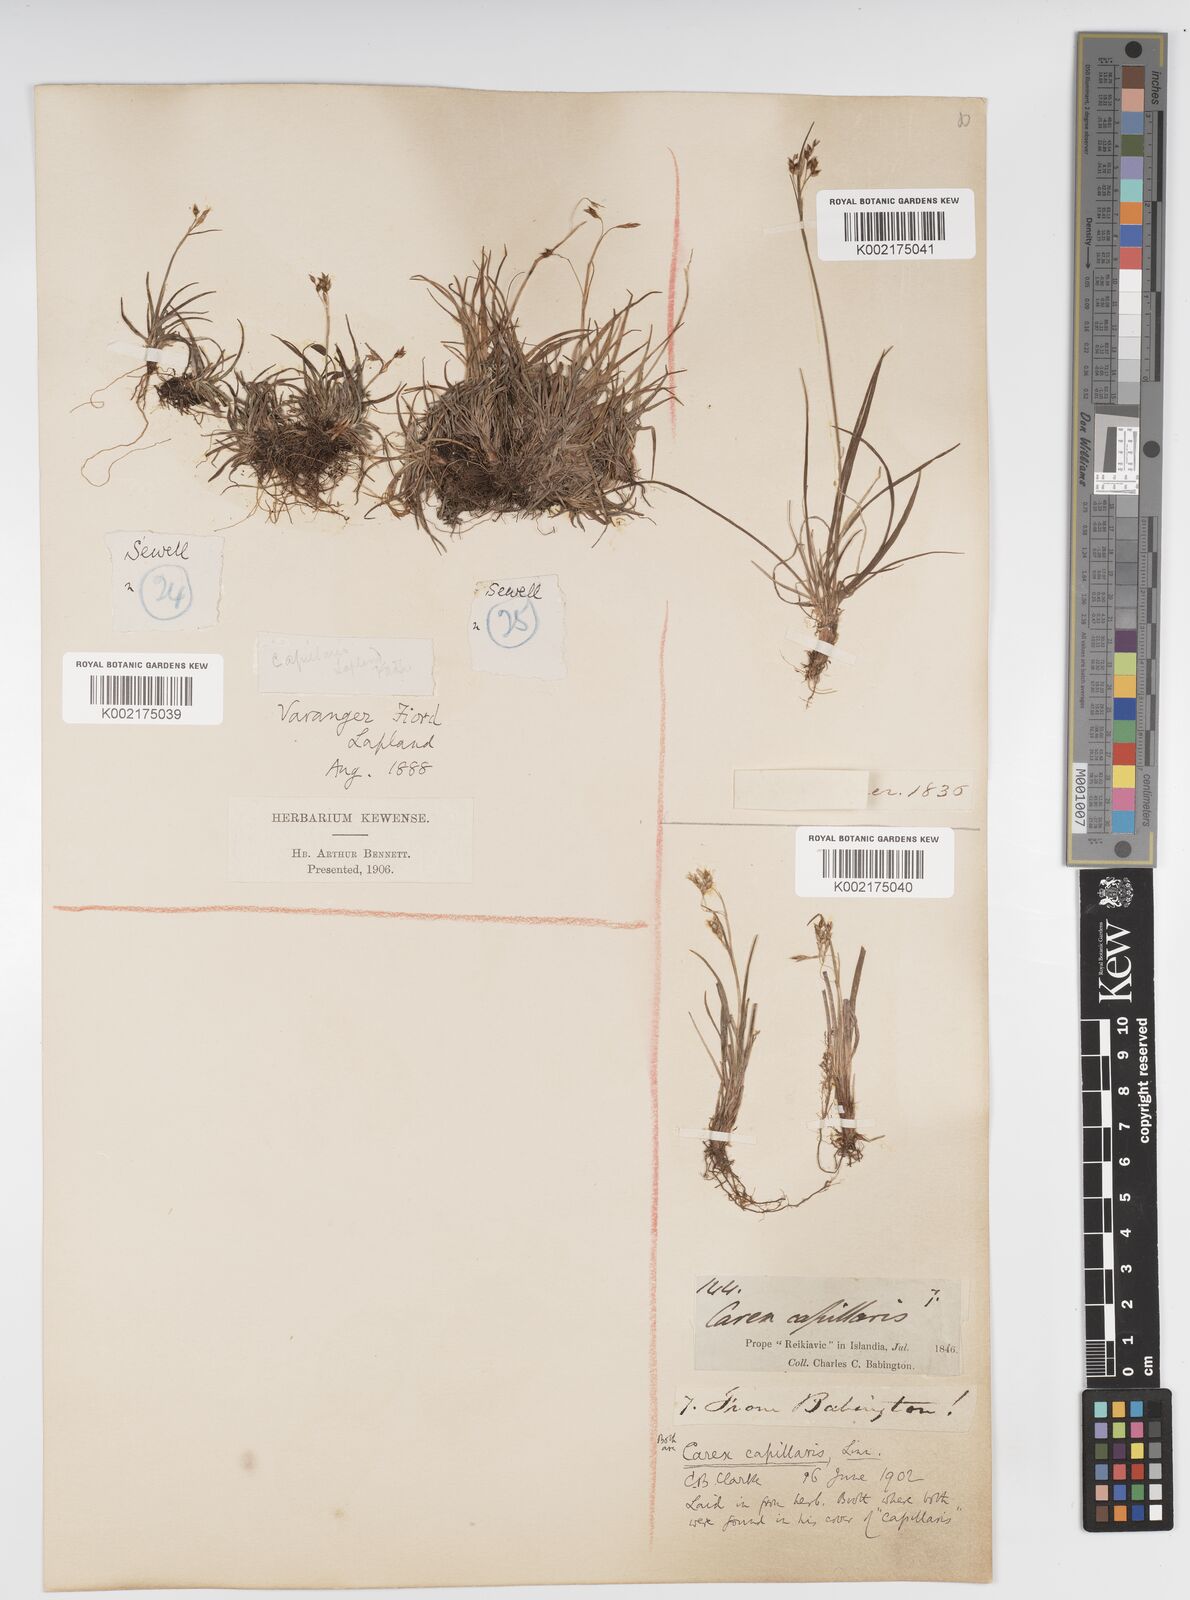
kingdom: Plantae
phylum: Tracheophyta
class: Liliopsida
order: Poales
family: Cyperaceae
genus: Carex
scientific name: Carex capillaris
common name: Hair sedge
